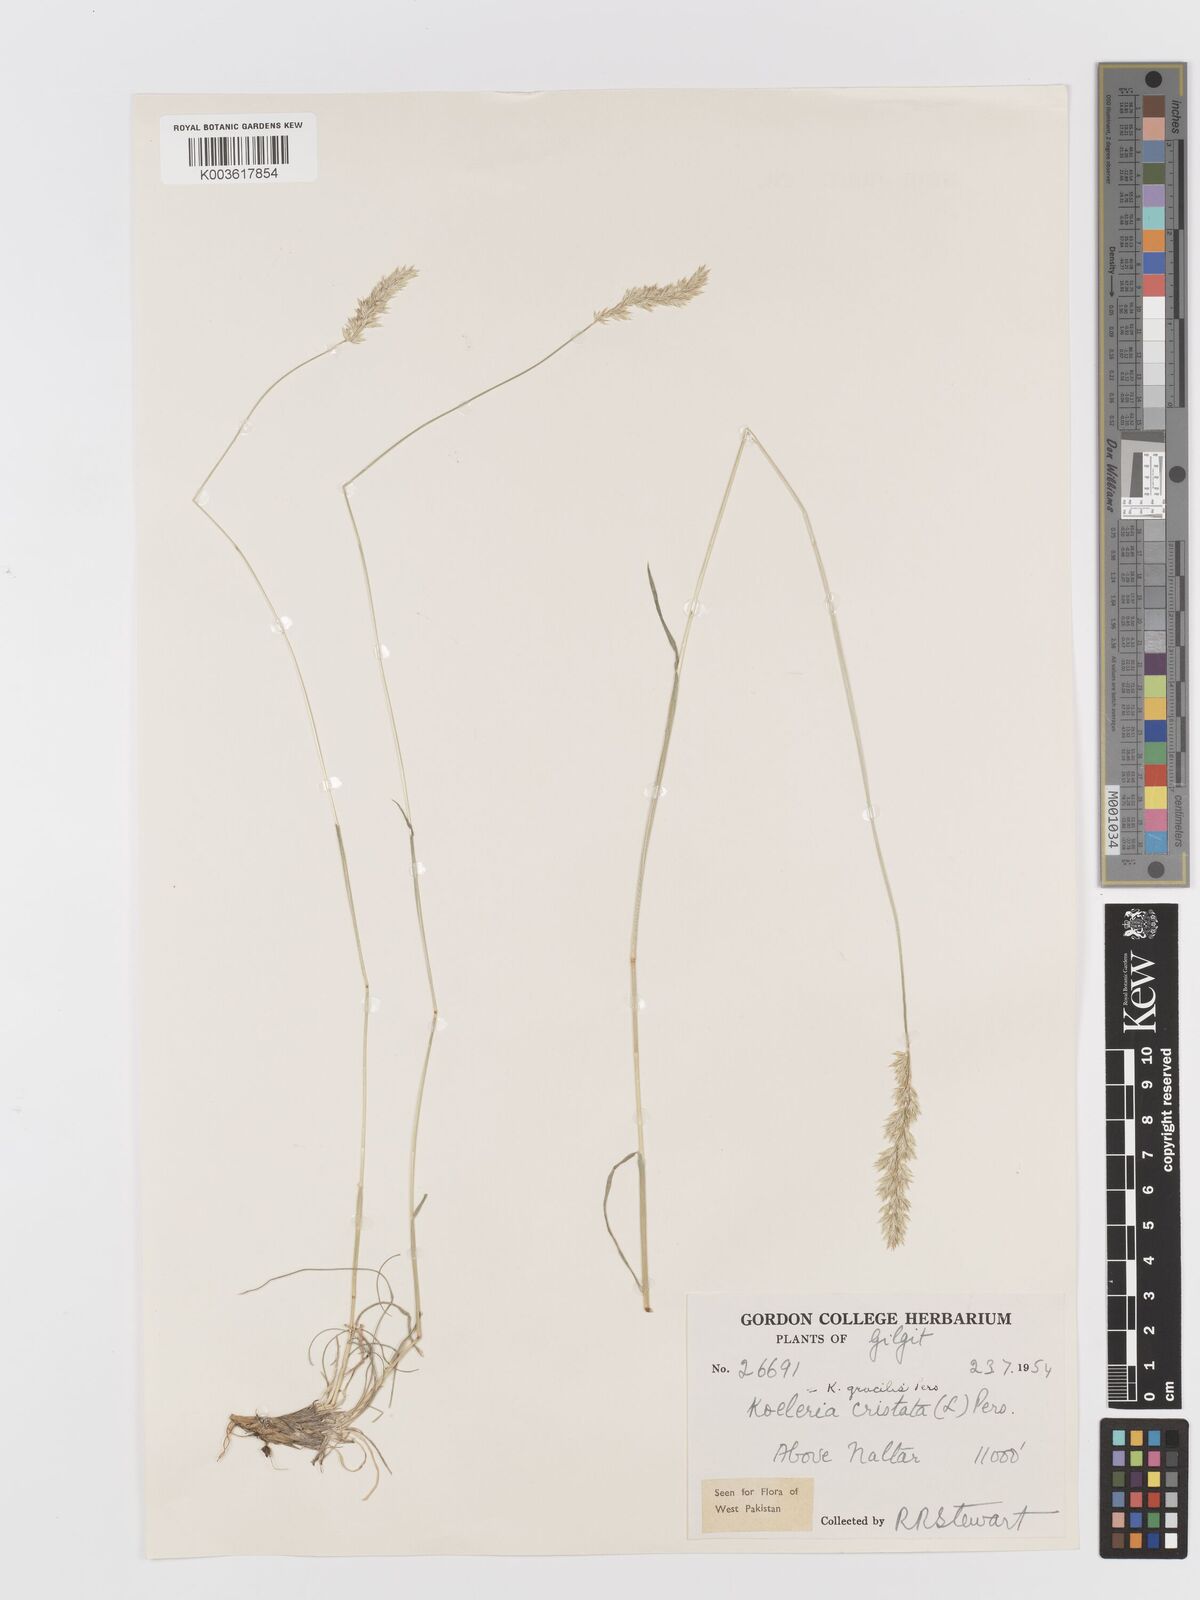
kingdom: Plantae
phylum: Tracheophyta
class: Liliopsida
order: Poales
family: Poaceae
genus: Koeleria
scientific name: Koeleria macrantha
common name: Crested hair-grass
